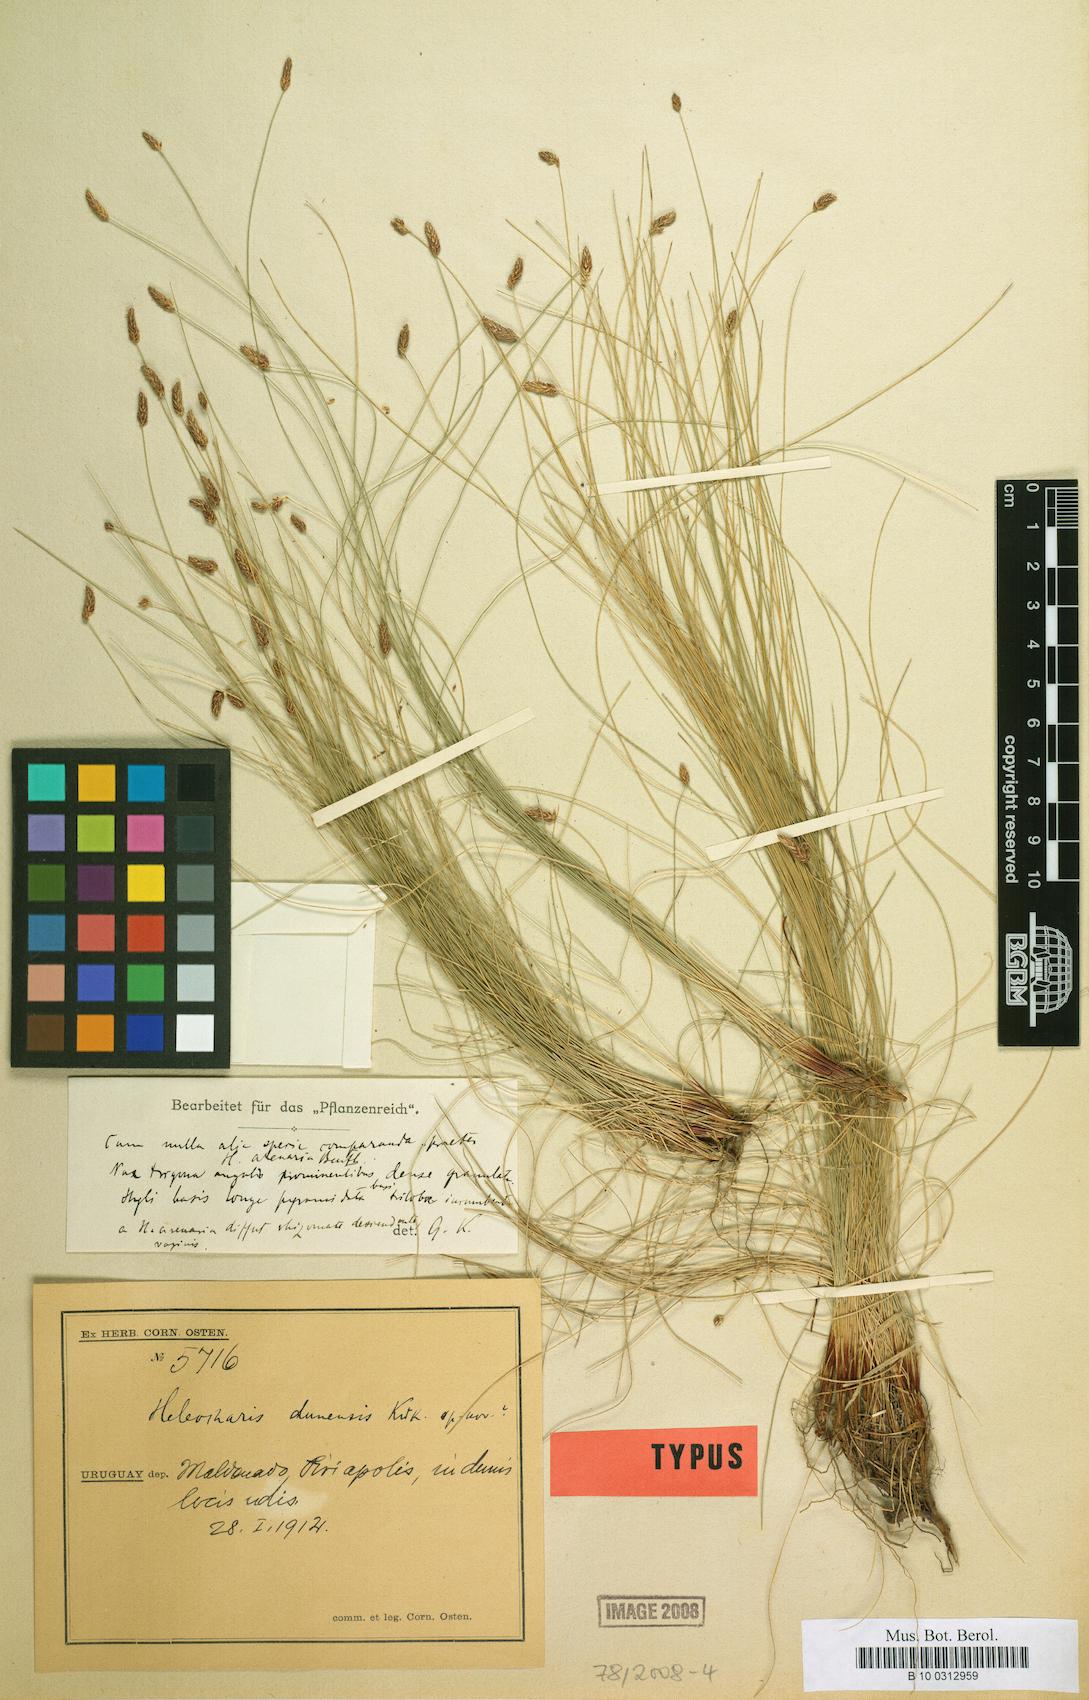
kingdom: Plantae
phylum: Tracheophyta
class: Liliopsida
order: Poales
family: Cyperaceae
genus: Eleocharis
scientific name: Eleocharis dunensis
